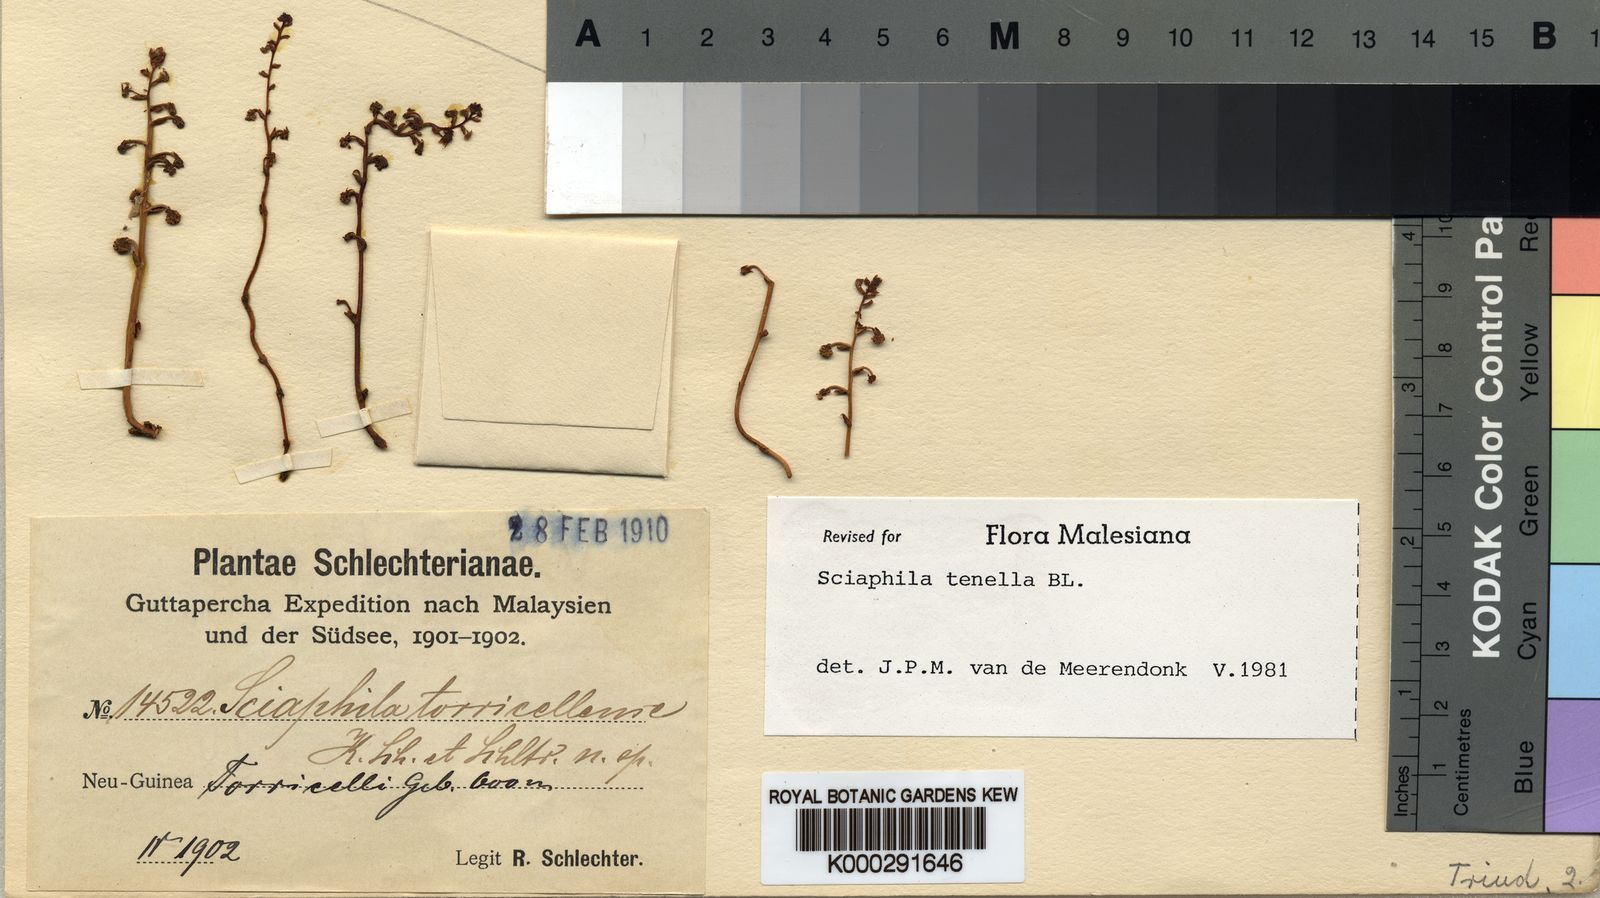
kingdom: Plantae
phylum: Tracheophyta
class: Liliopsida
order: Pandanales
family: Triuridaceae
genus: Sciaphila
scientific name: Sciaphila tenella
